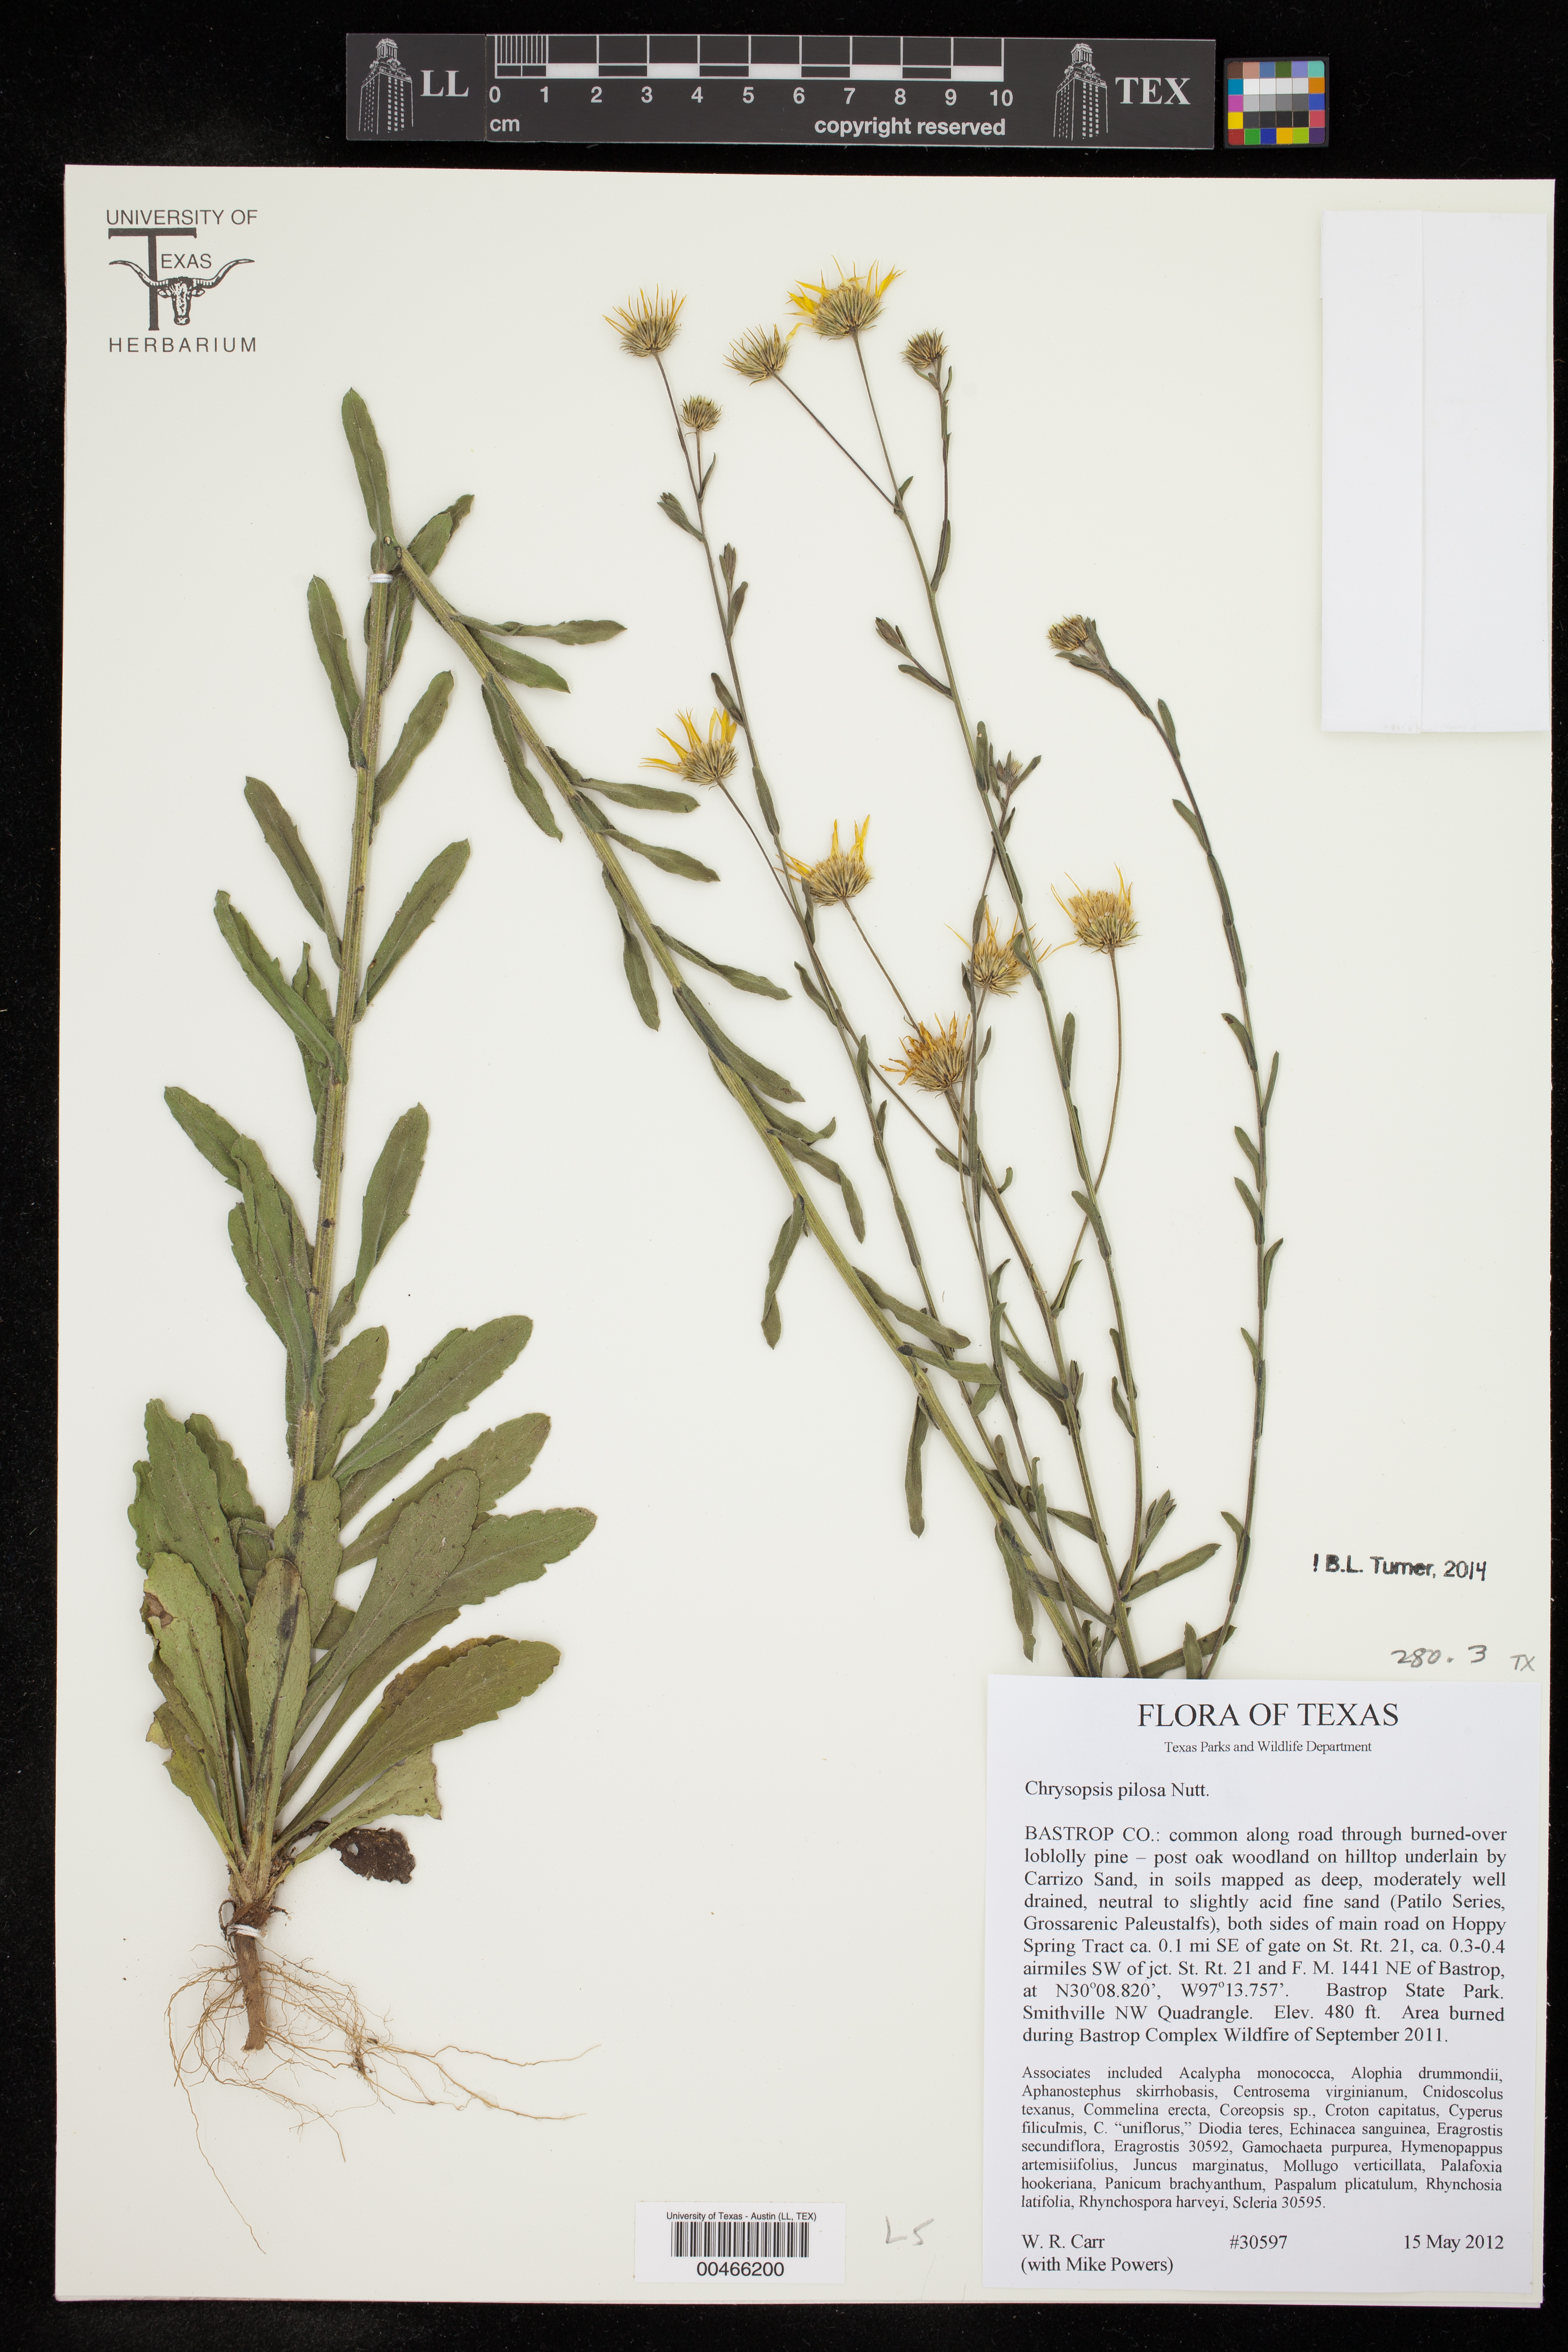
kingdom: Plantae
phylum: Tracheophyta
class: Magnoliopsida
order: Asterales
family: Asteraceae
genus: Chrysopsis
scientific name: Chrysopsis gossypina
